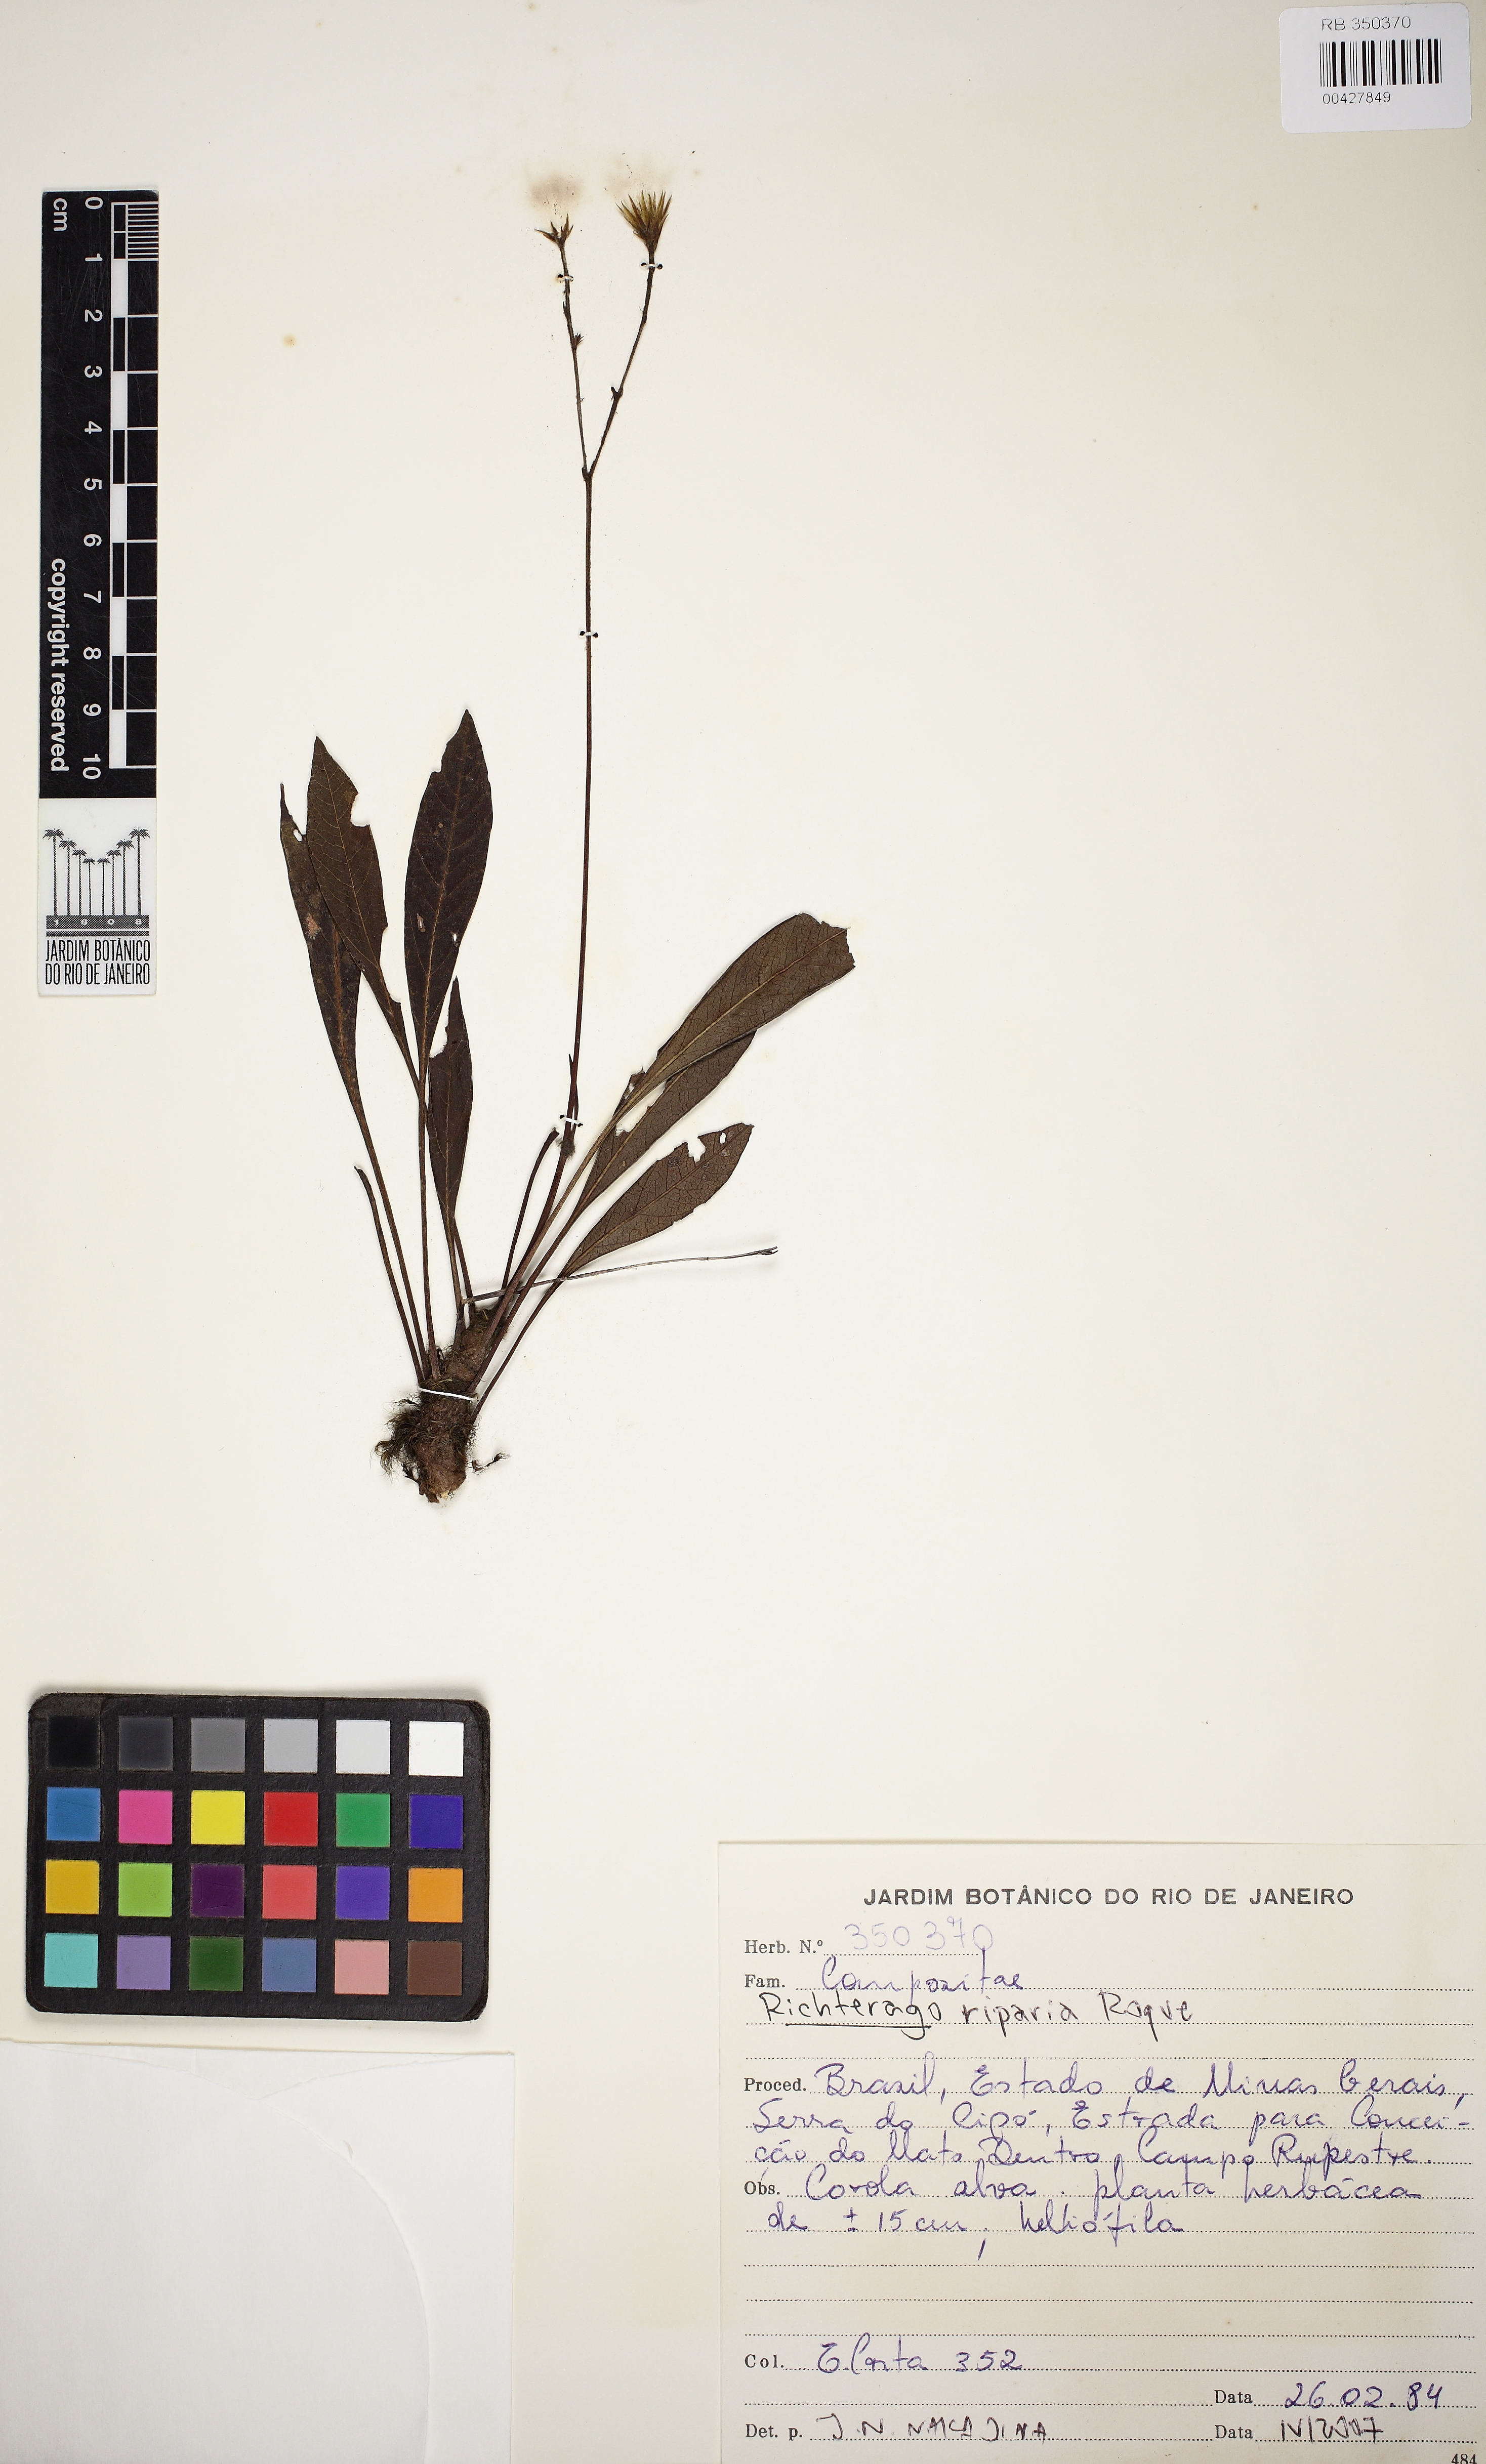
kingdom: Plantae
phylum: Tracheophyta
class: Magnoliopsida
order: Asterales
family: Asteraceae
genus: Richterago
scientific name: Richterago riparia
